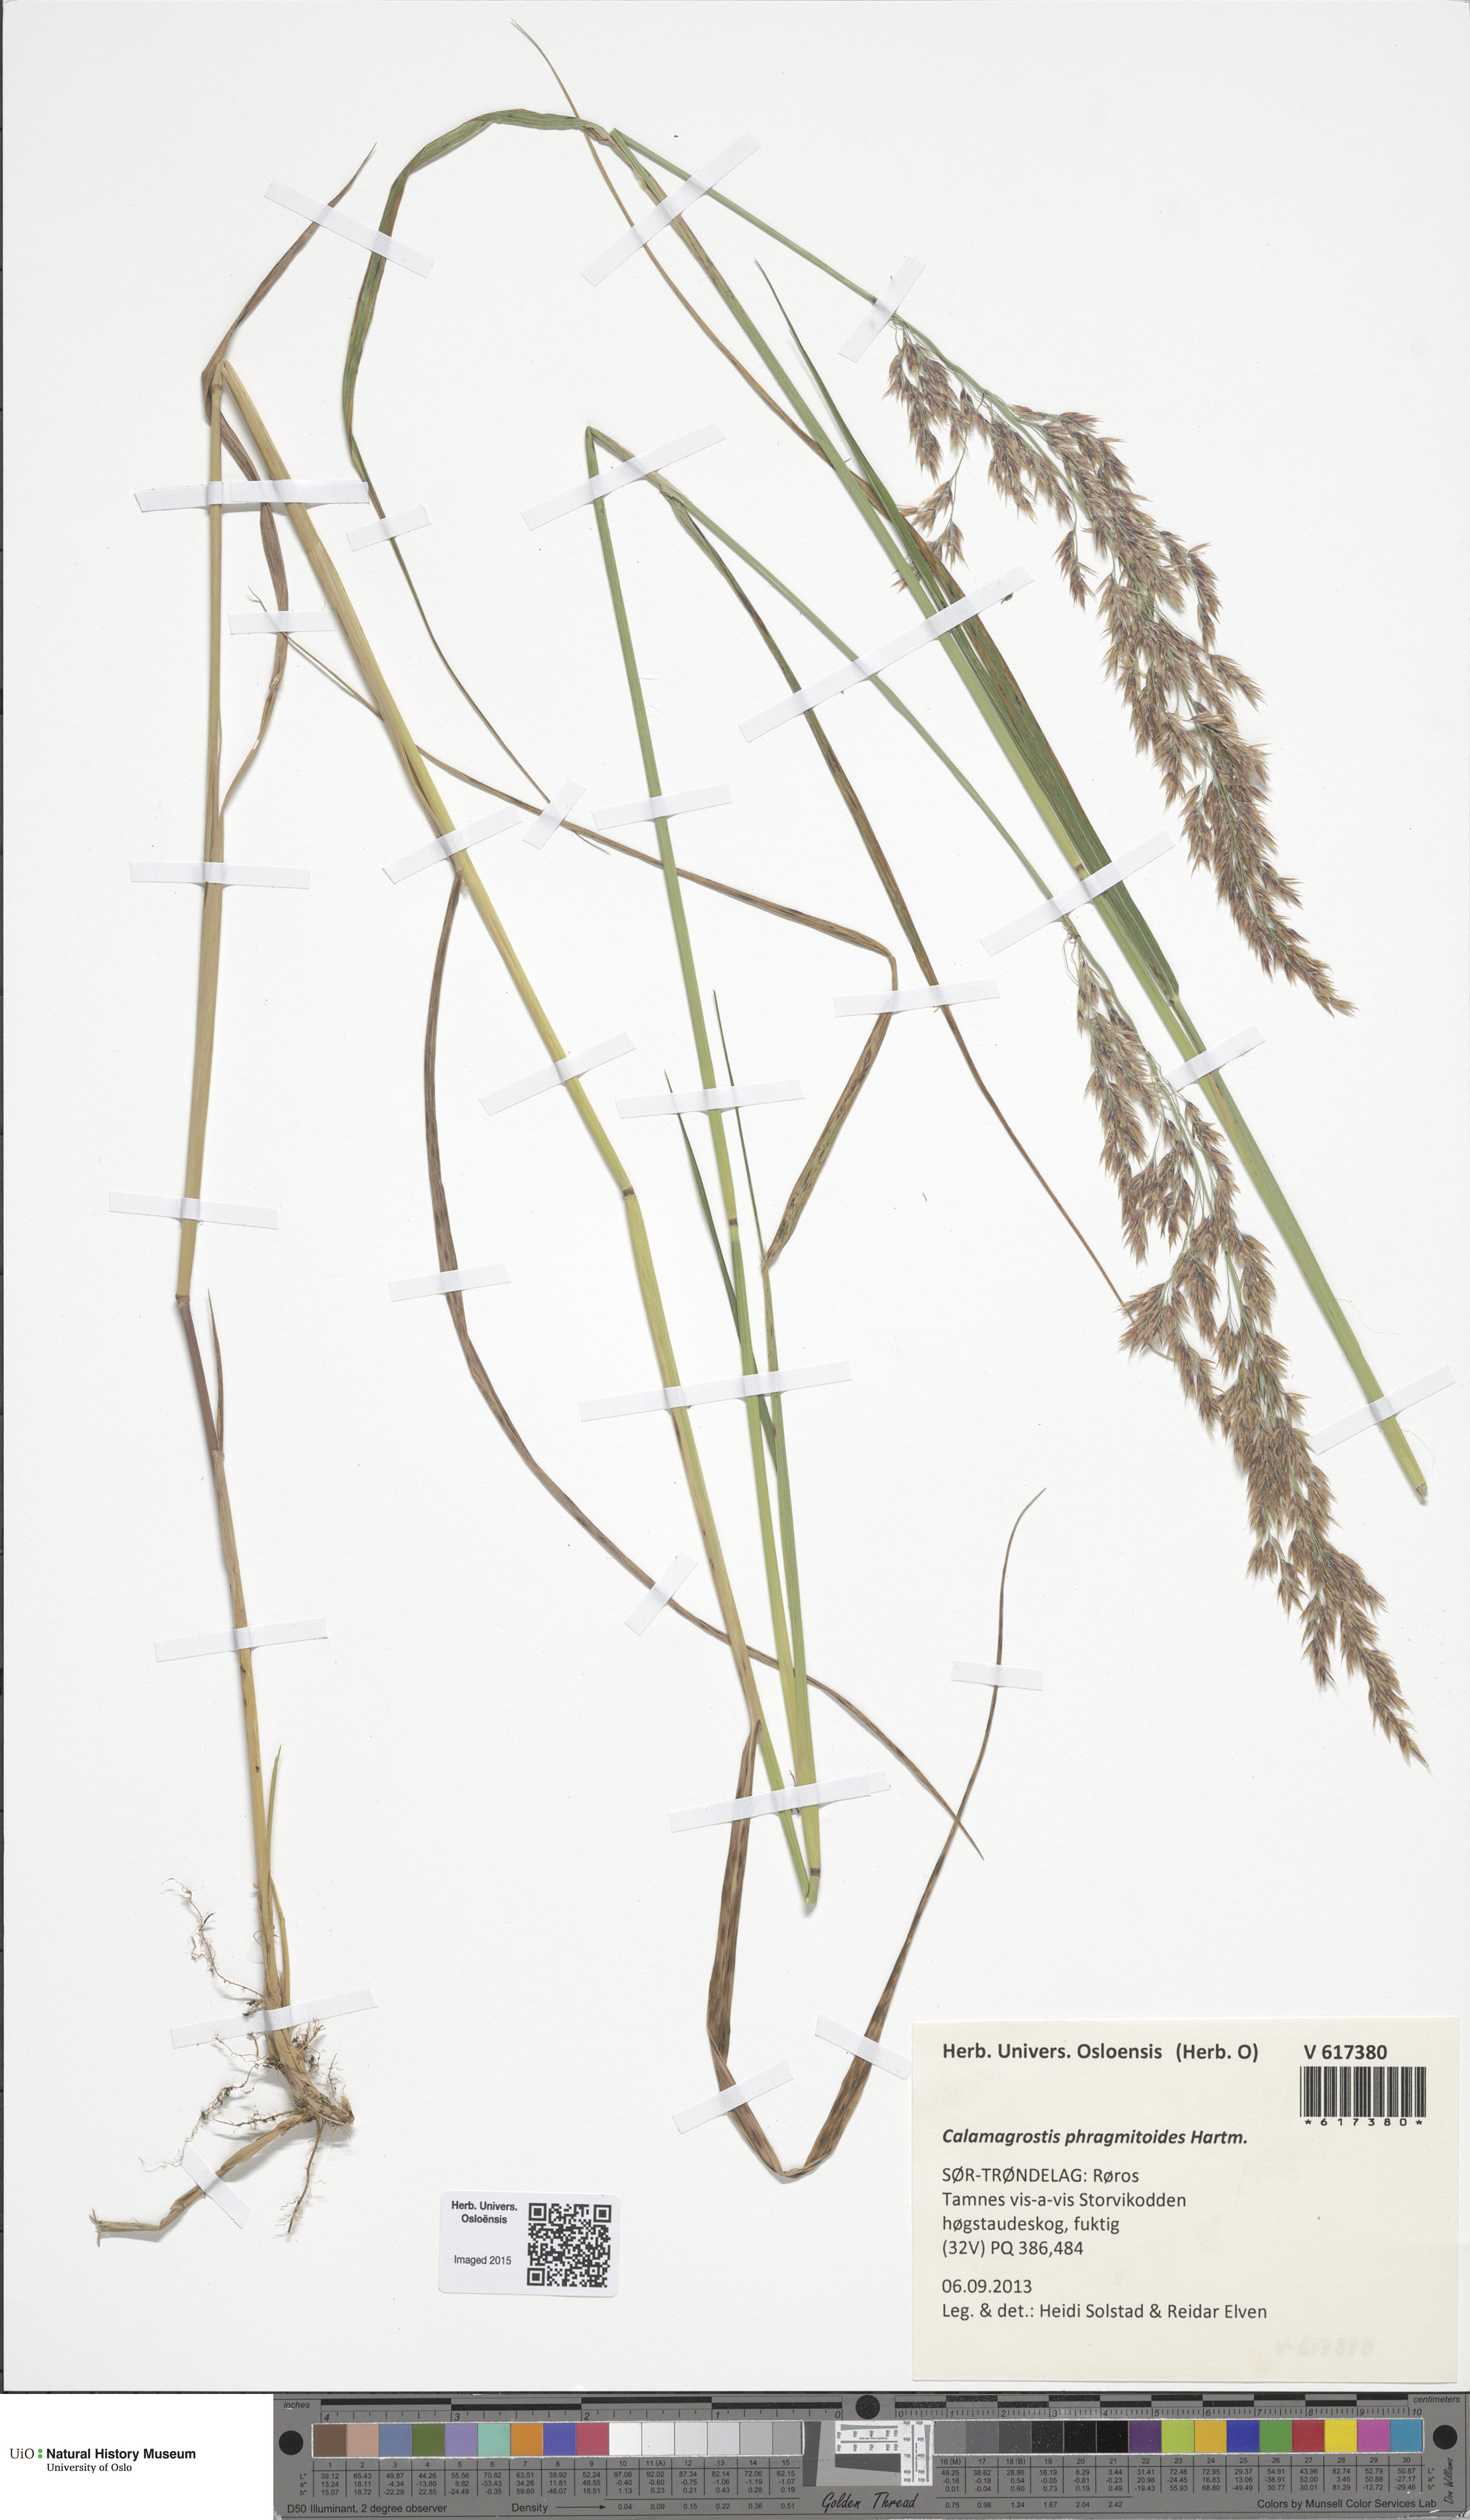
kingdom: Plantae
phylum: Tracheophyta
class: Liliopsida
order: Poales
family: Poaceae
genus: Calamagrostis
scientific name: Calamagrostis purpurea
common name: Scandinavian small-reed
